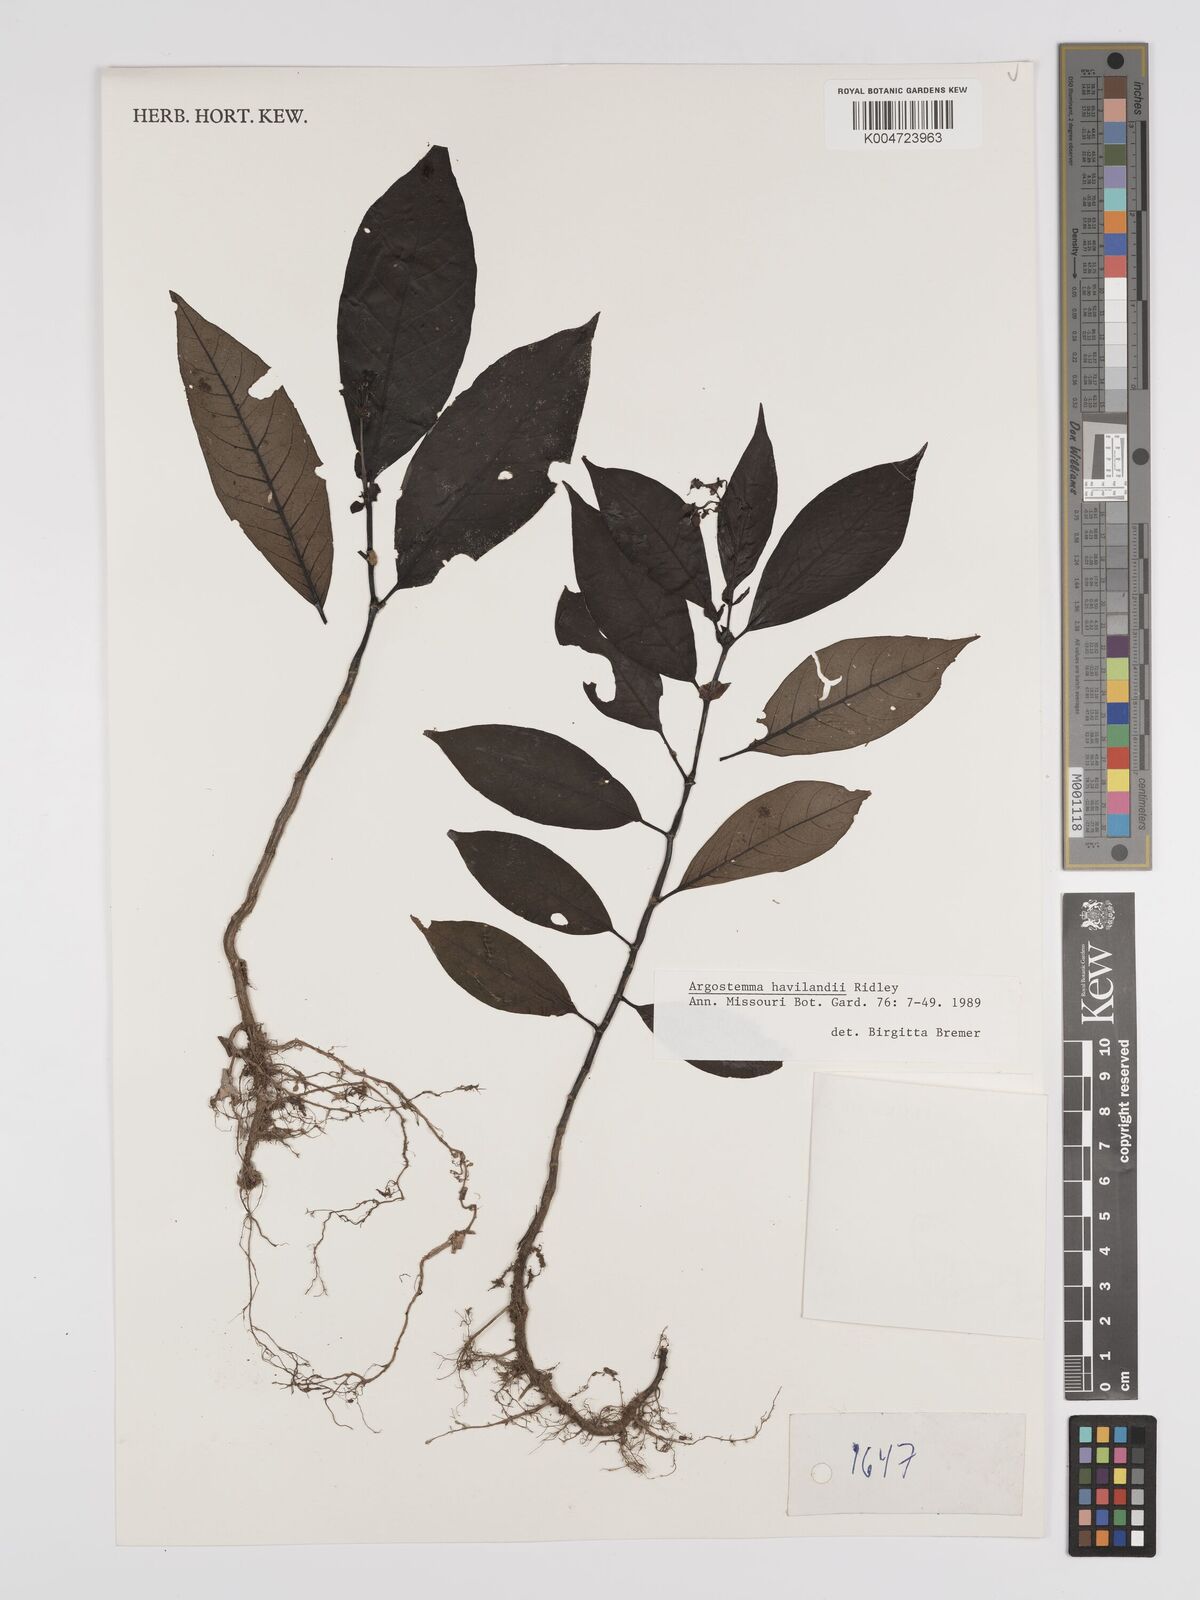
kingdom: Plantae
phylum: Tracheophyta
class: Magnoliopsida
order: Gentianales
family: Rubiaceae
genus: Argostemma
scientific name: Argostemma havilandii
